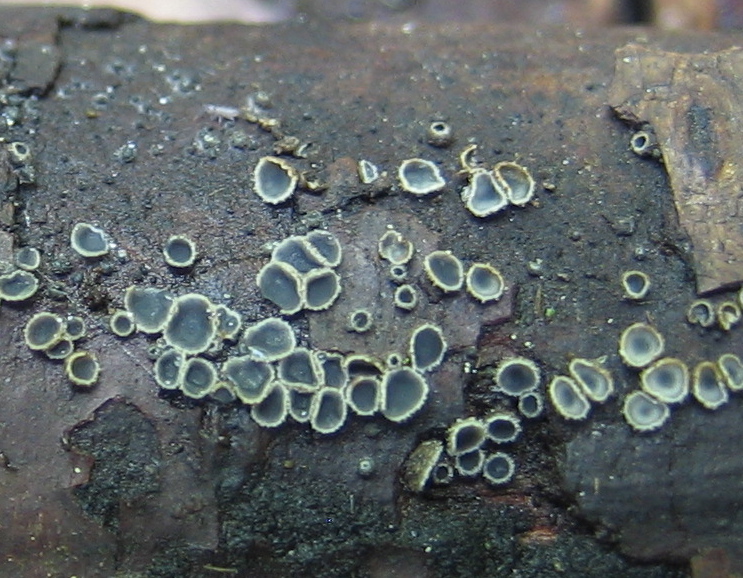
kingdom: Fungi
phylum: Ascomycota
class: Leotiomycetes
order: Helotiales
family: Dermateaceae
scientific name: Dermateaceae
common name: gråskivefamilien
